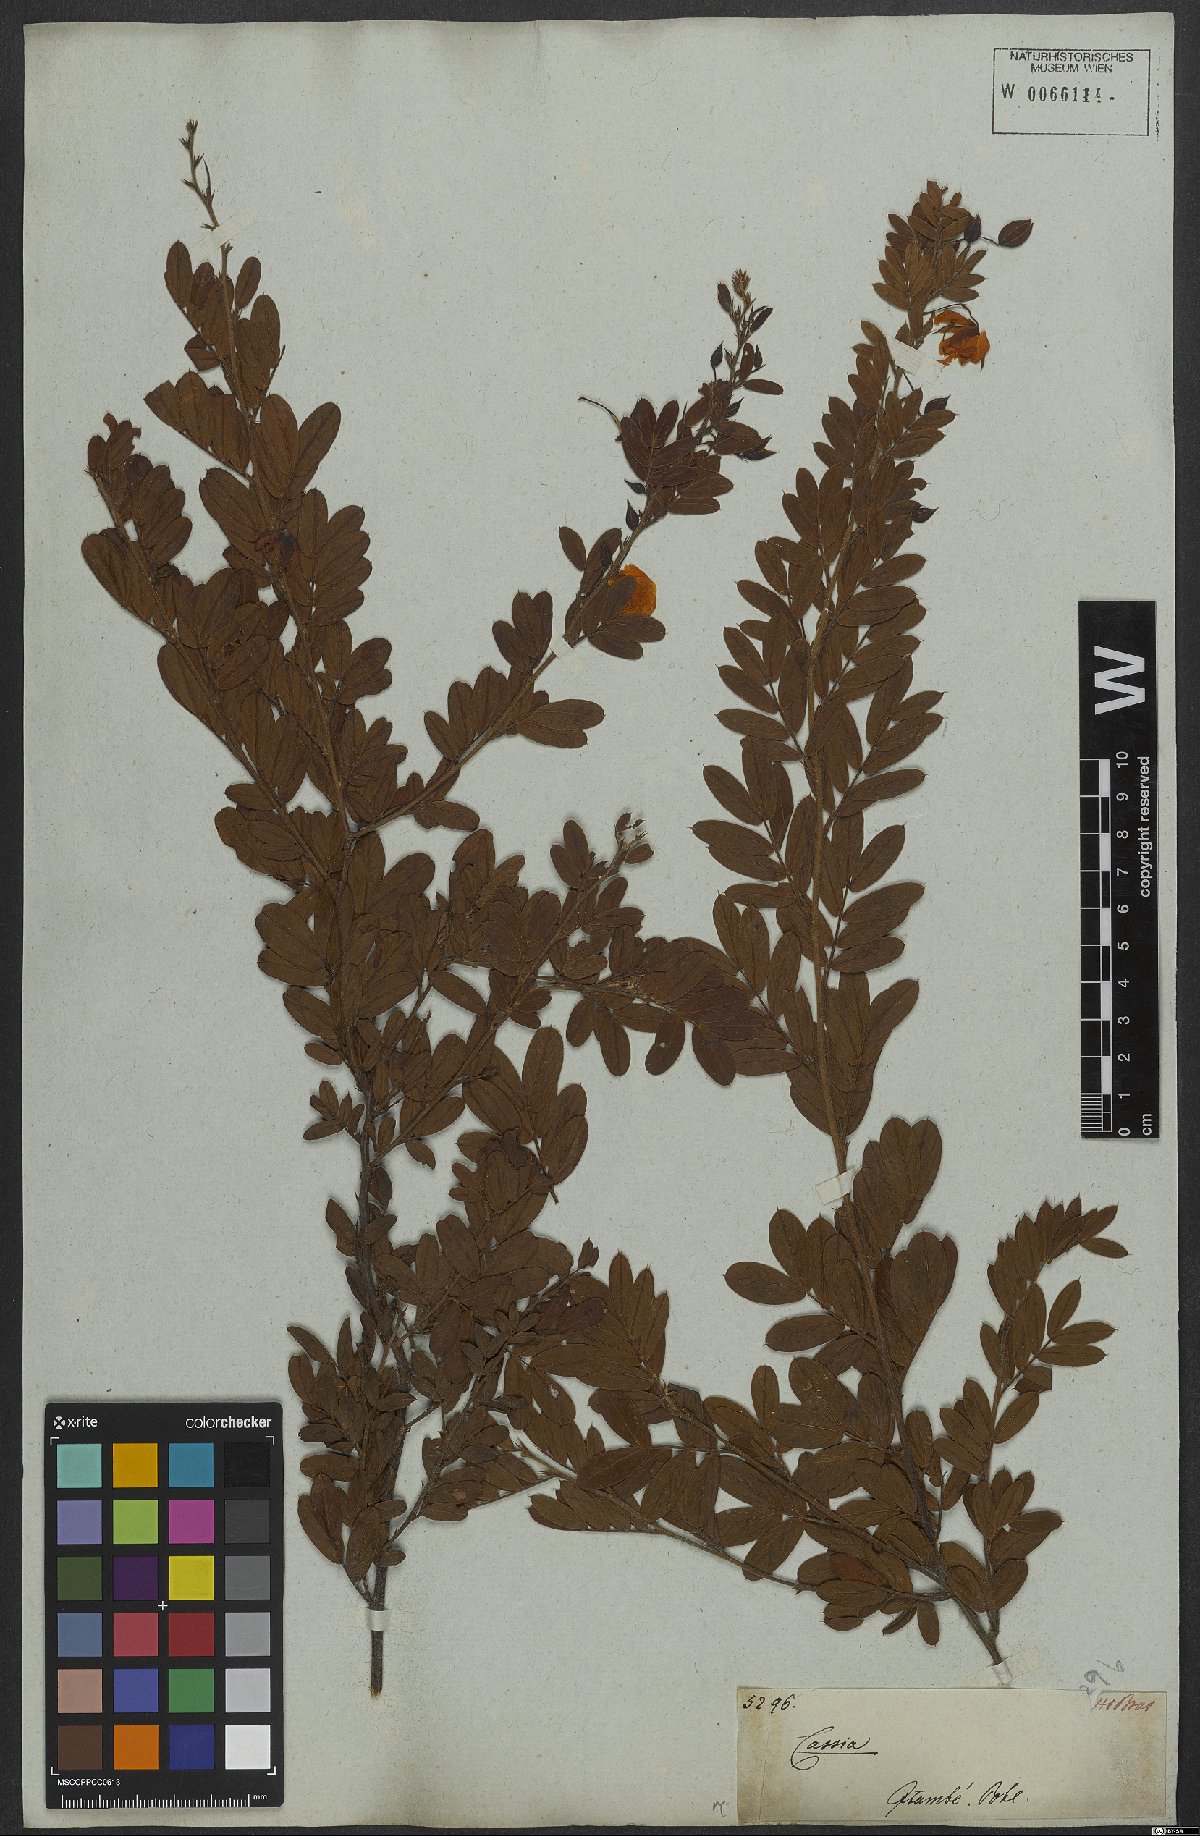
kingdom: Plantae
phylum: Tracheophyta
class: Magnoliopsida
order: Fabales
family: Fabaceae
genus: Chamaecrista
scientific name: Chamaecrista mucronata
